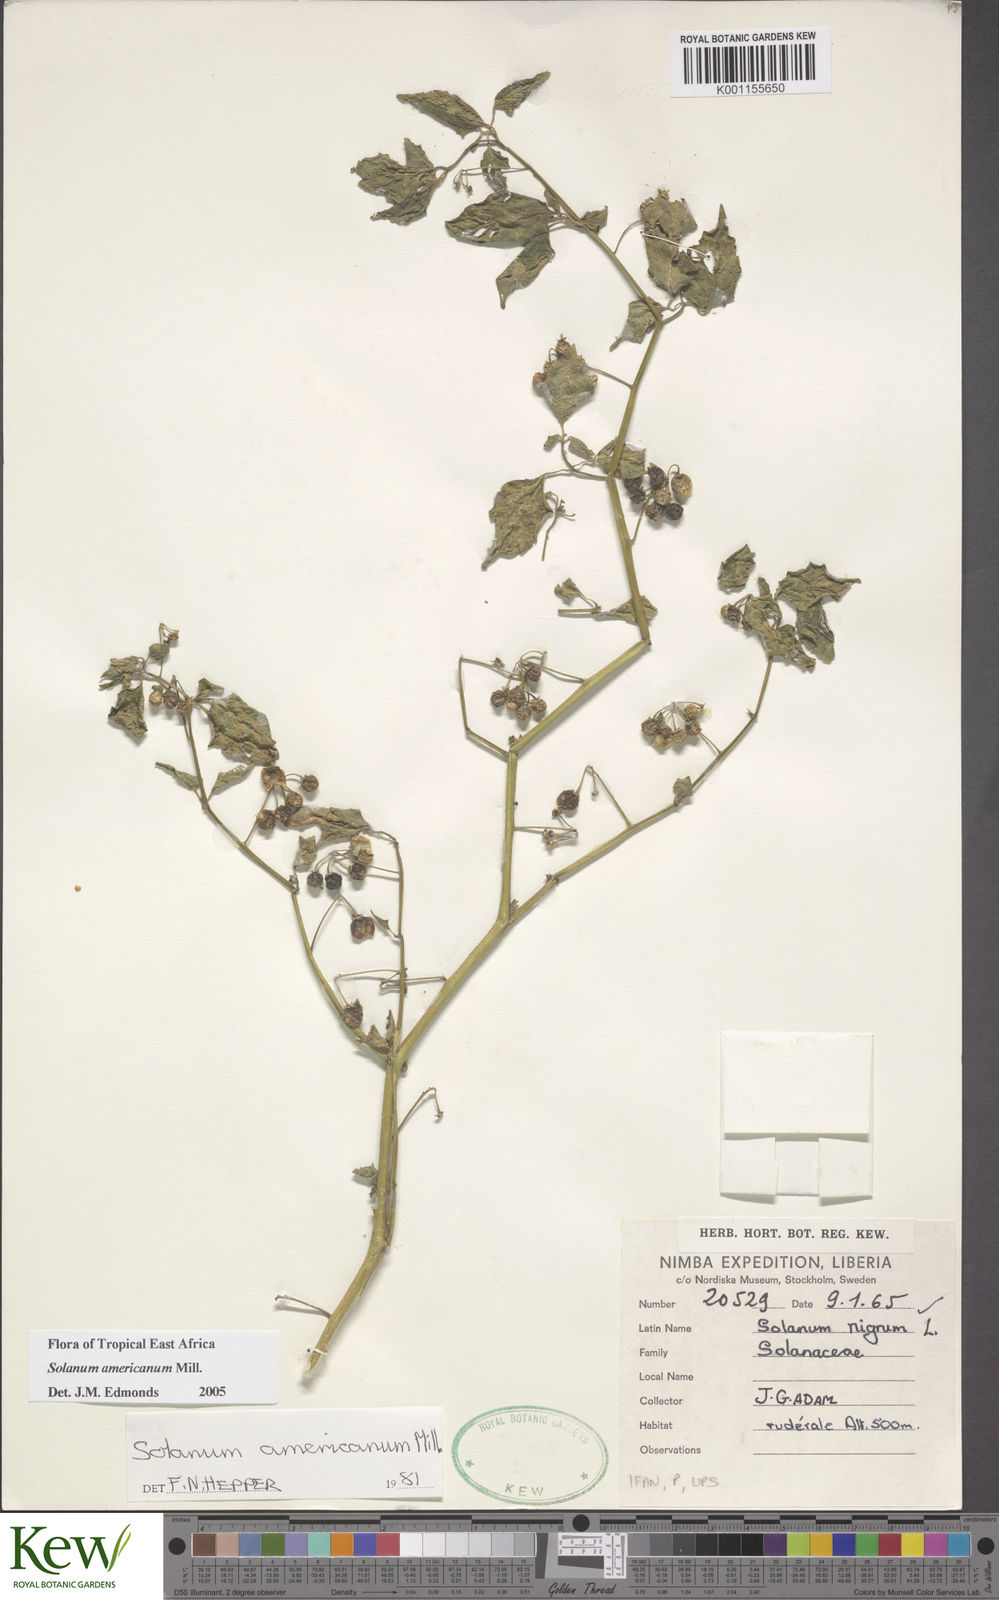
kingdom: Plantae
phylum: Tracheophyta
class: Magnoliopsida
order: Solanales
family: Solanaceae
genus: Solanum
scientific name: Solanum americanum
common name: American black nightshade
